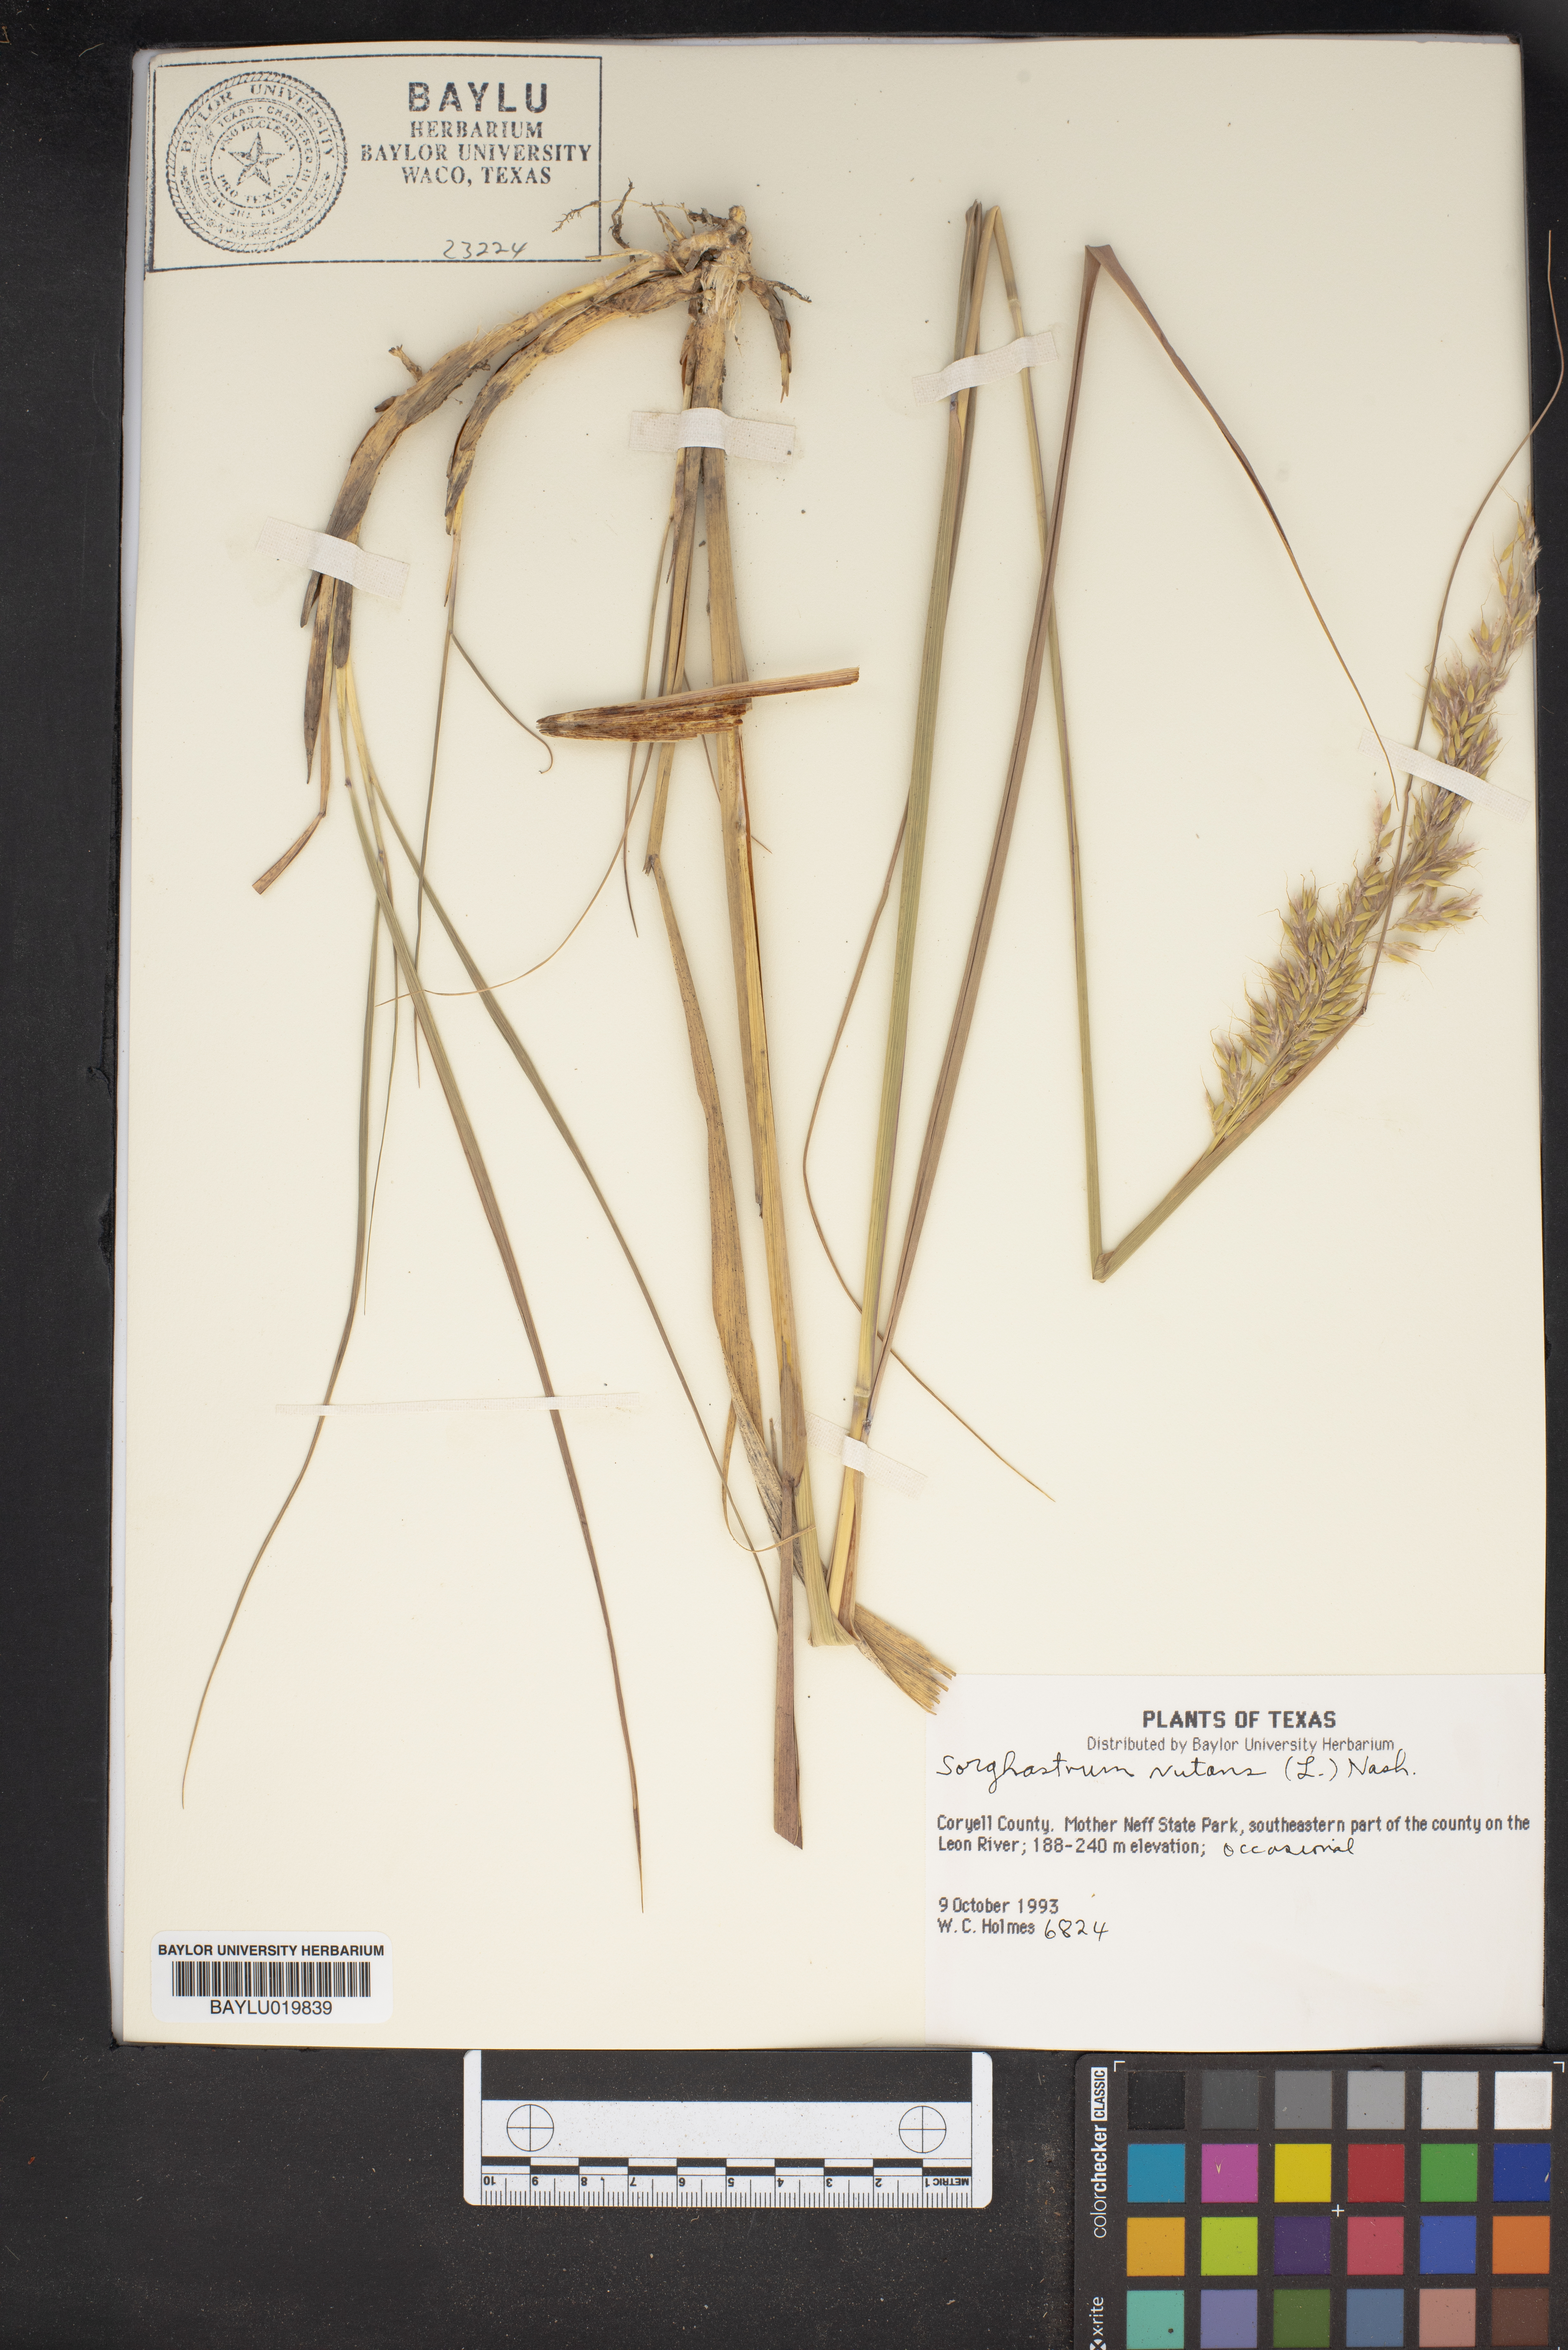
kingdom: Plantae
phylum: Tracheophyta
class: Liliopsida
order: Poales
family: Poaceae
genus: Sorghastrum
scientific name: Sorghastrum nutans
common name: Indian grass
